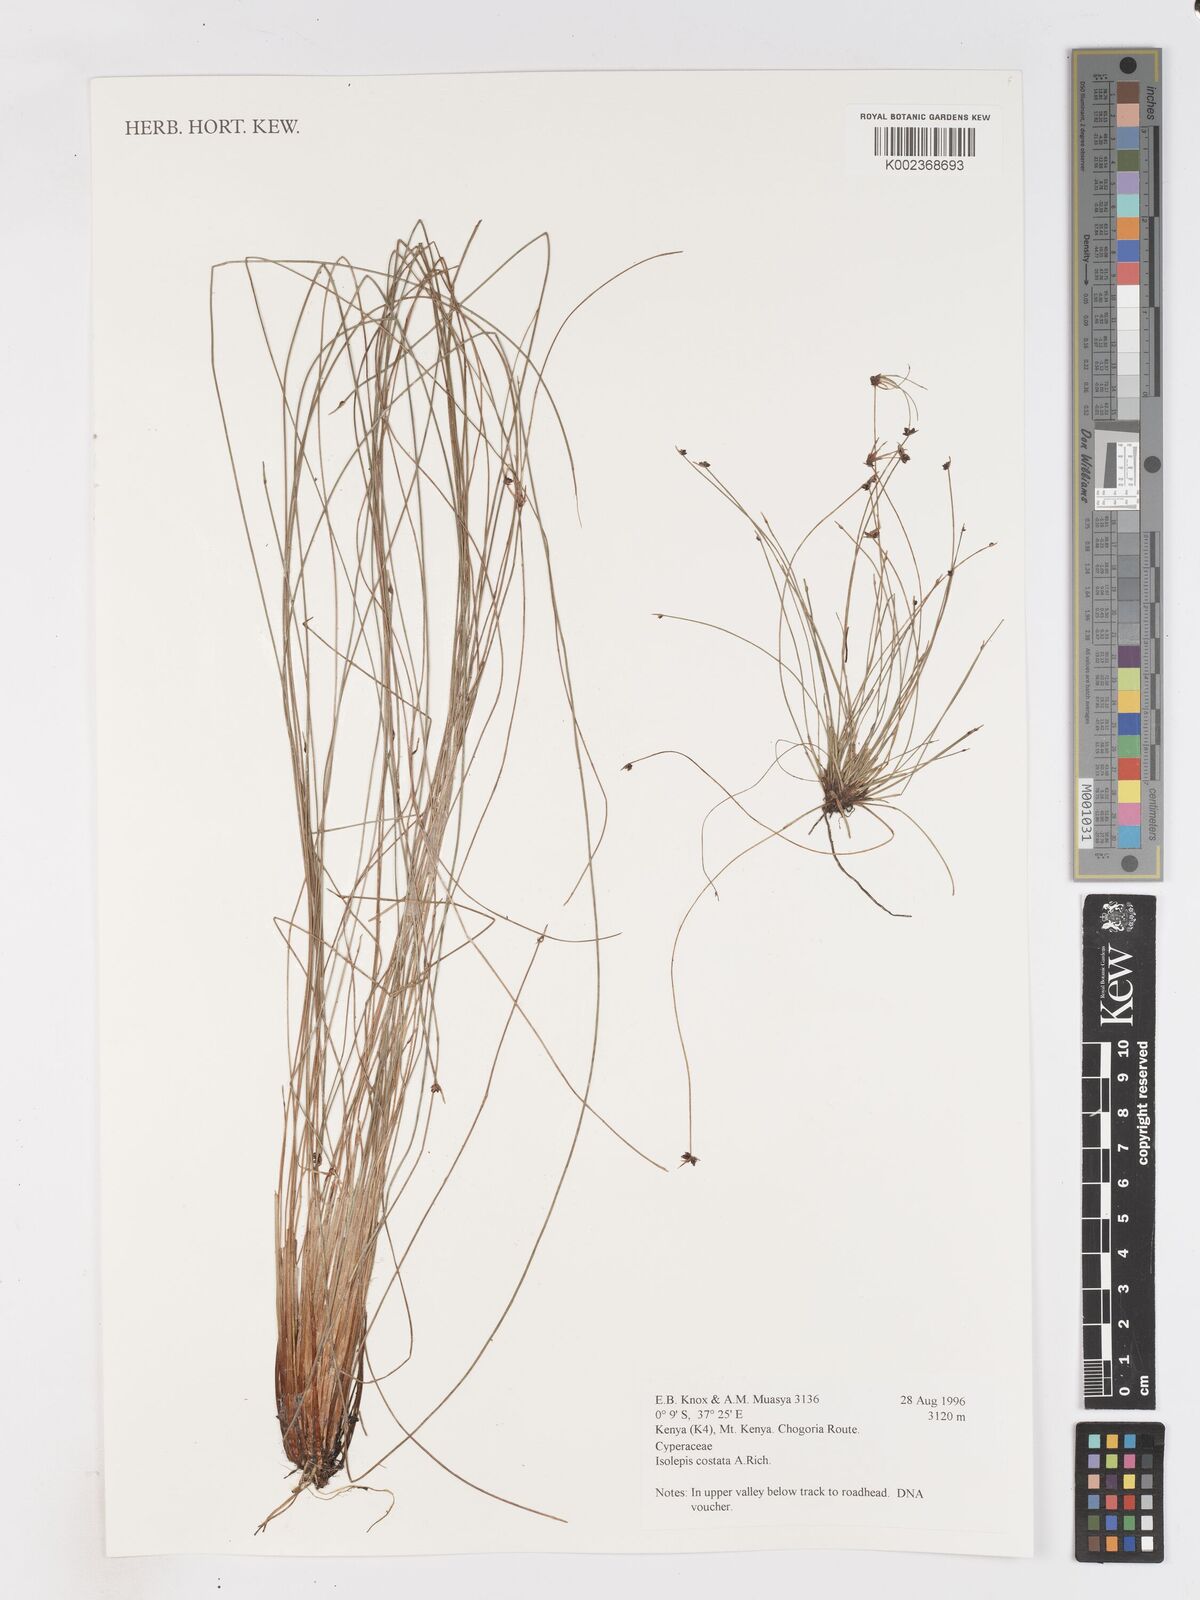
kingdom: Plantae
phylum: Tracheophyta
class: Liliopsida
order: Poales
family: Cyperaceae
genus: Isolepis
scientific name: Isolepis costata
